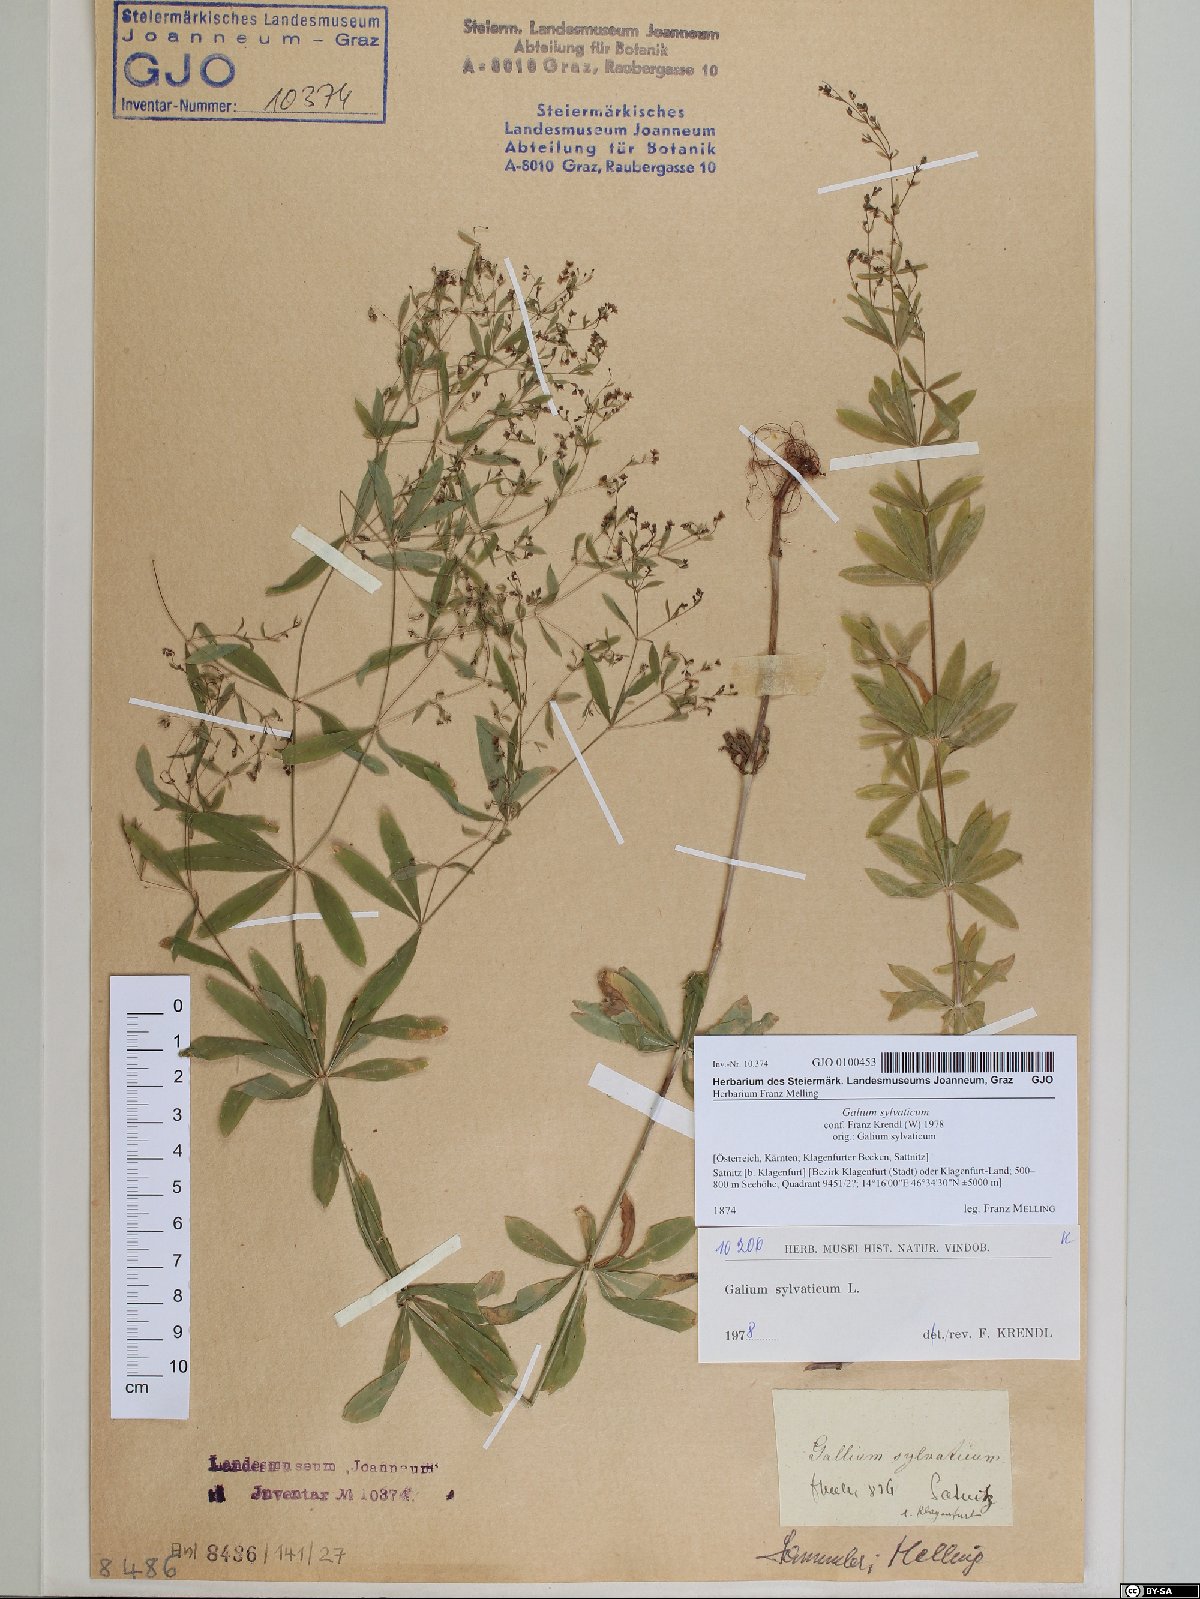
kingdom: Plantae
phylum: Tracheophyta
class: Magnoliopsida
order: Gentianales
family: Rubiaceae
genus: Galium
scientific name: Galium sylvaticum
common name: Wood bedstraw
